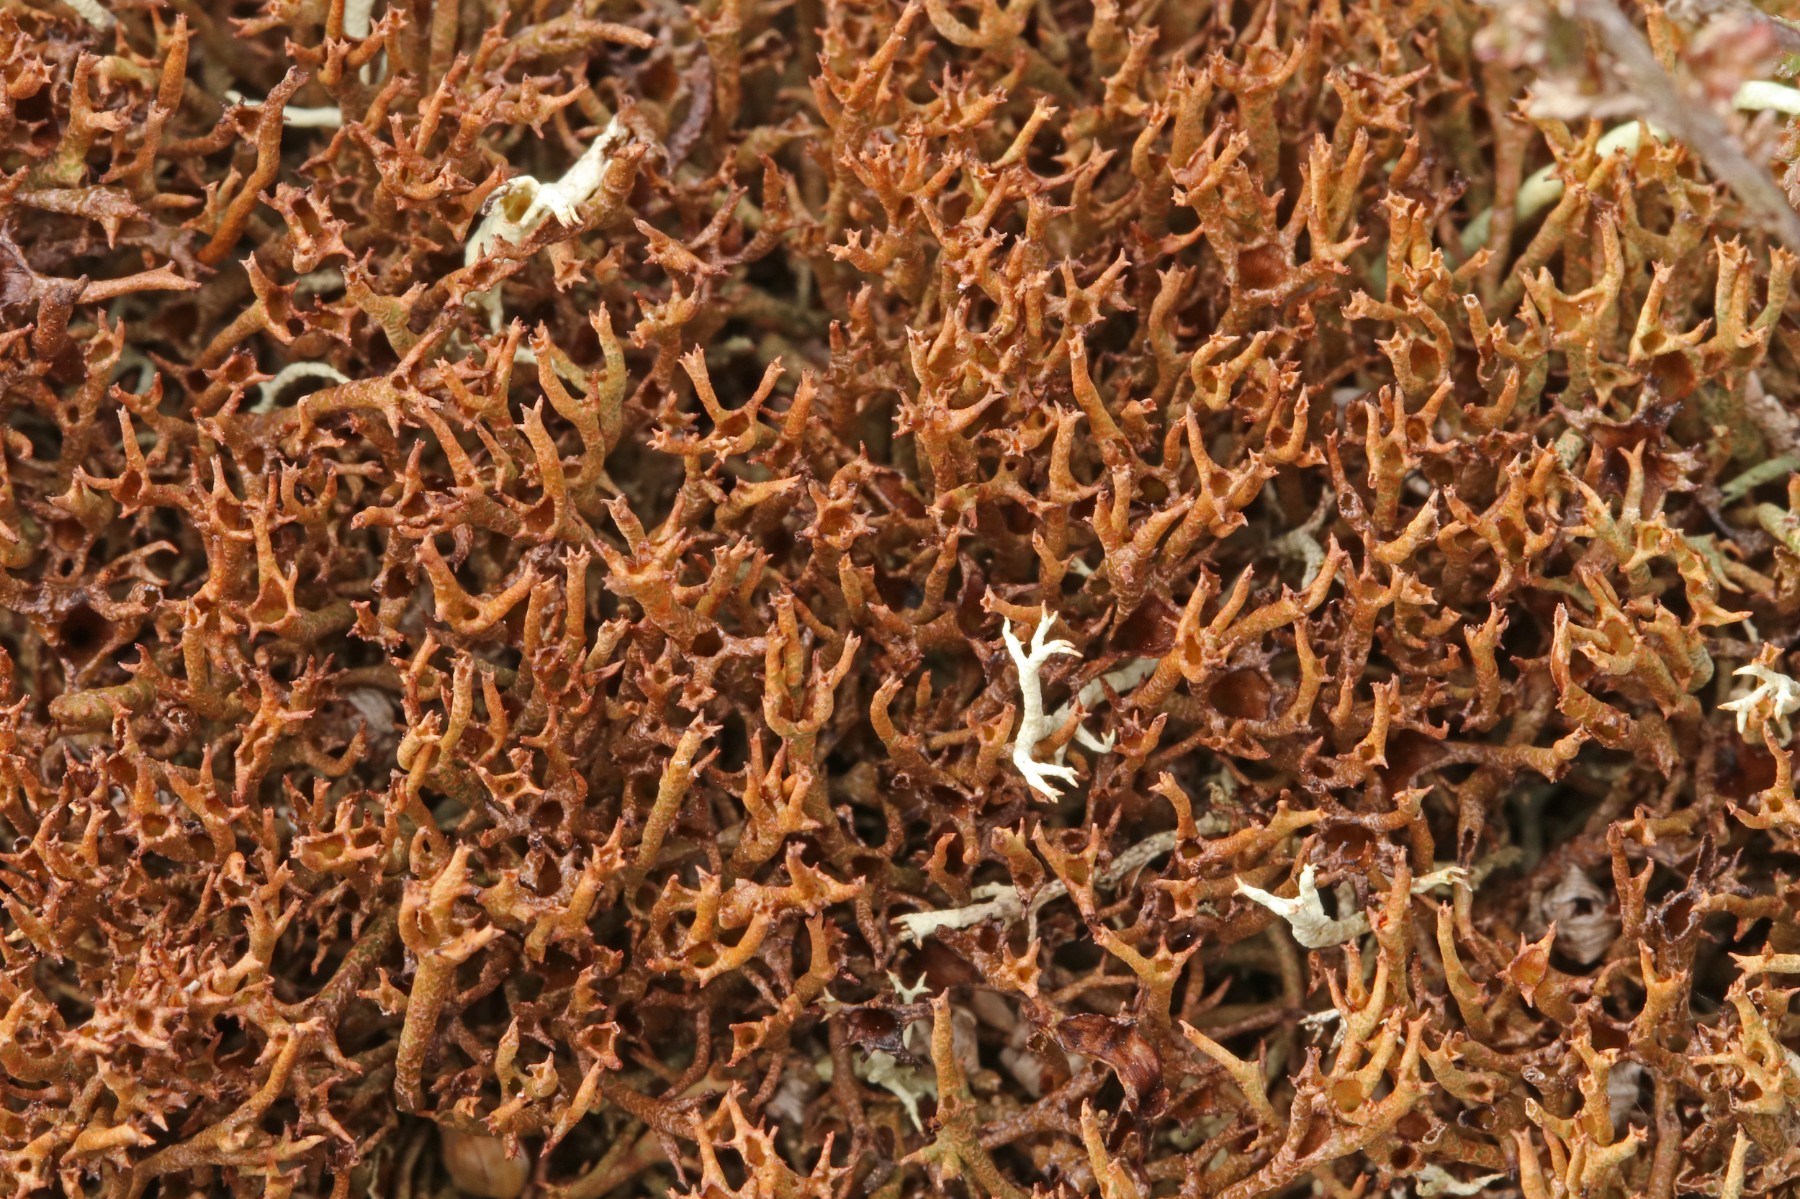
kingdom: Fungi
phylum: Ascomycota
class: Lecanoromycetes
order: Lecanorales
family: Cladoniaceae
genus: Cladonia
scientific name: Cladonia crispata
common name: takket bægerlav
